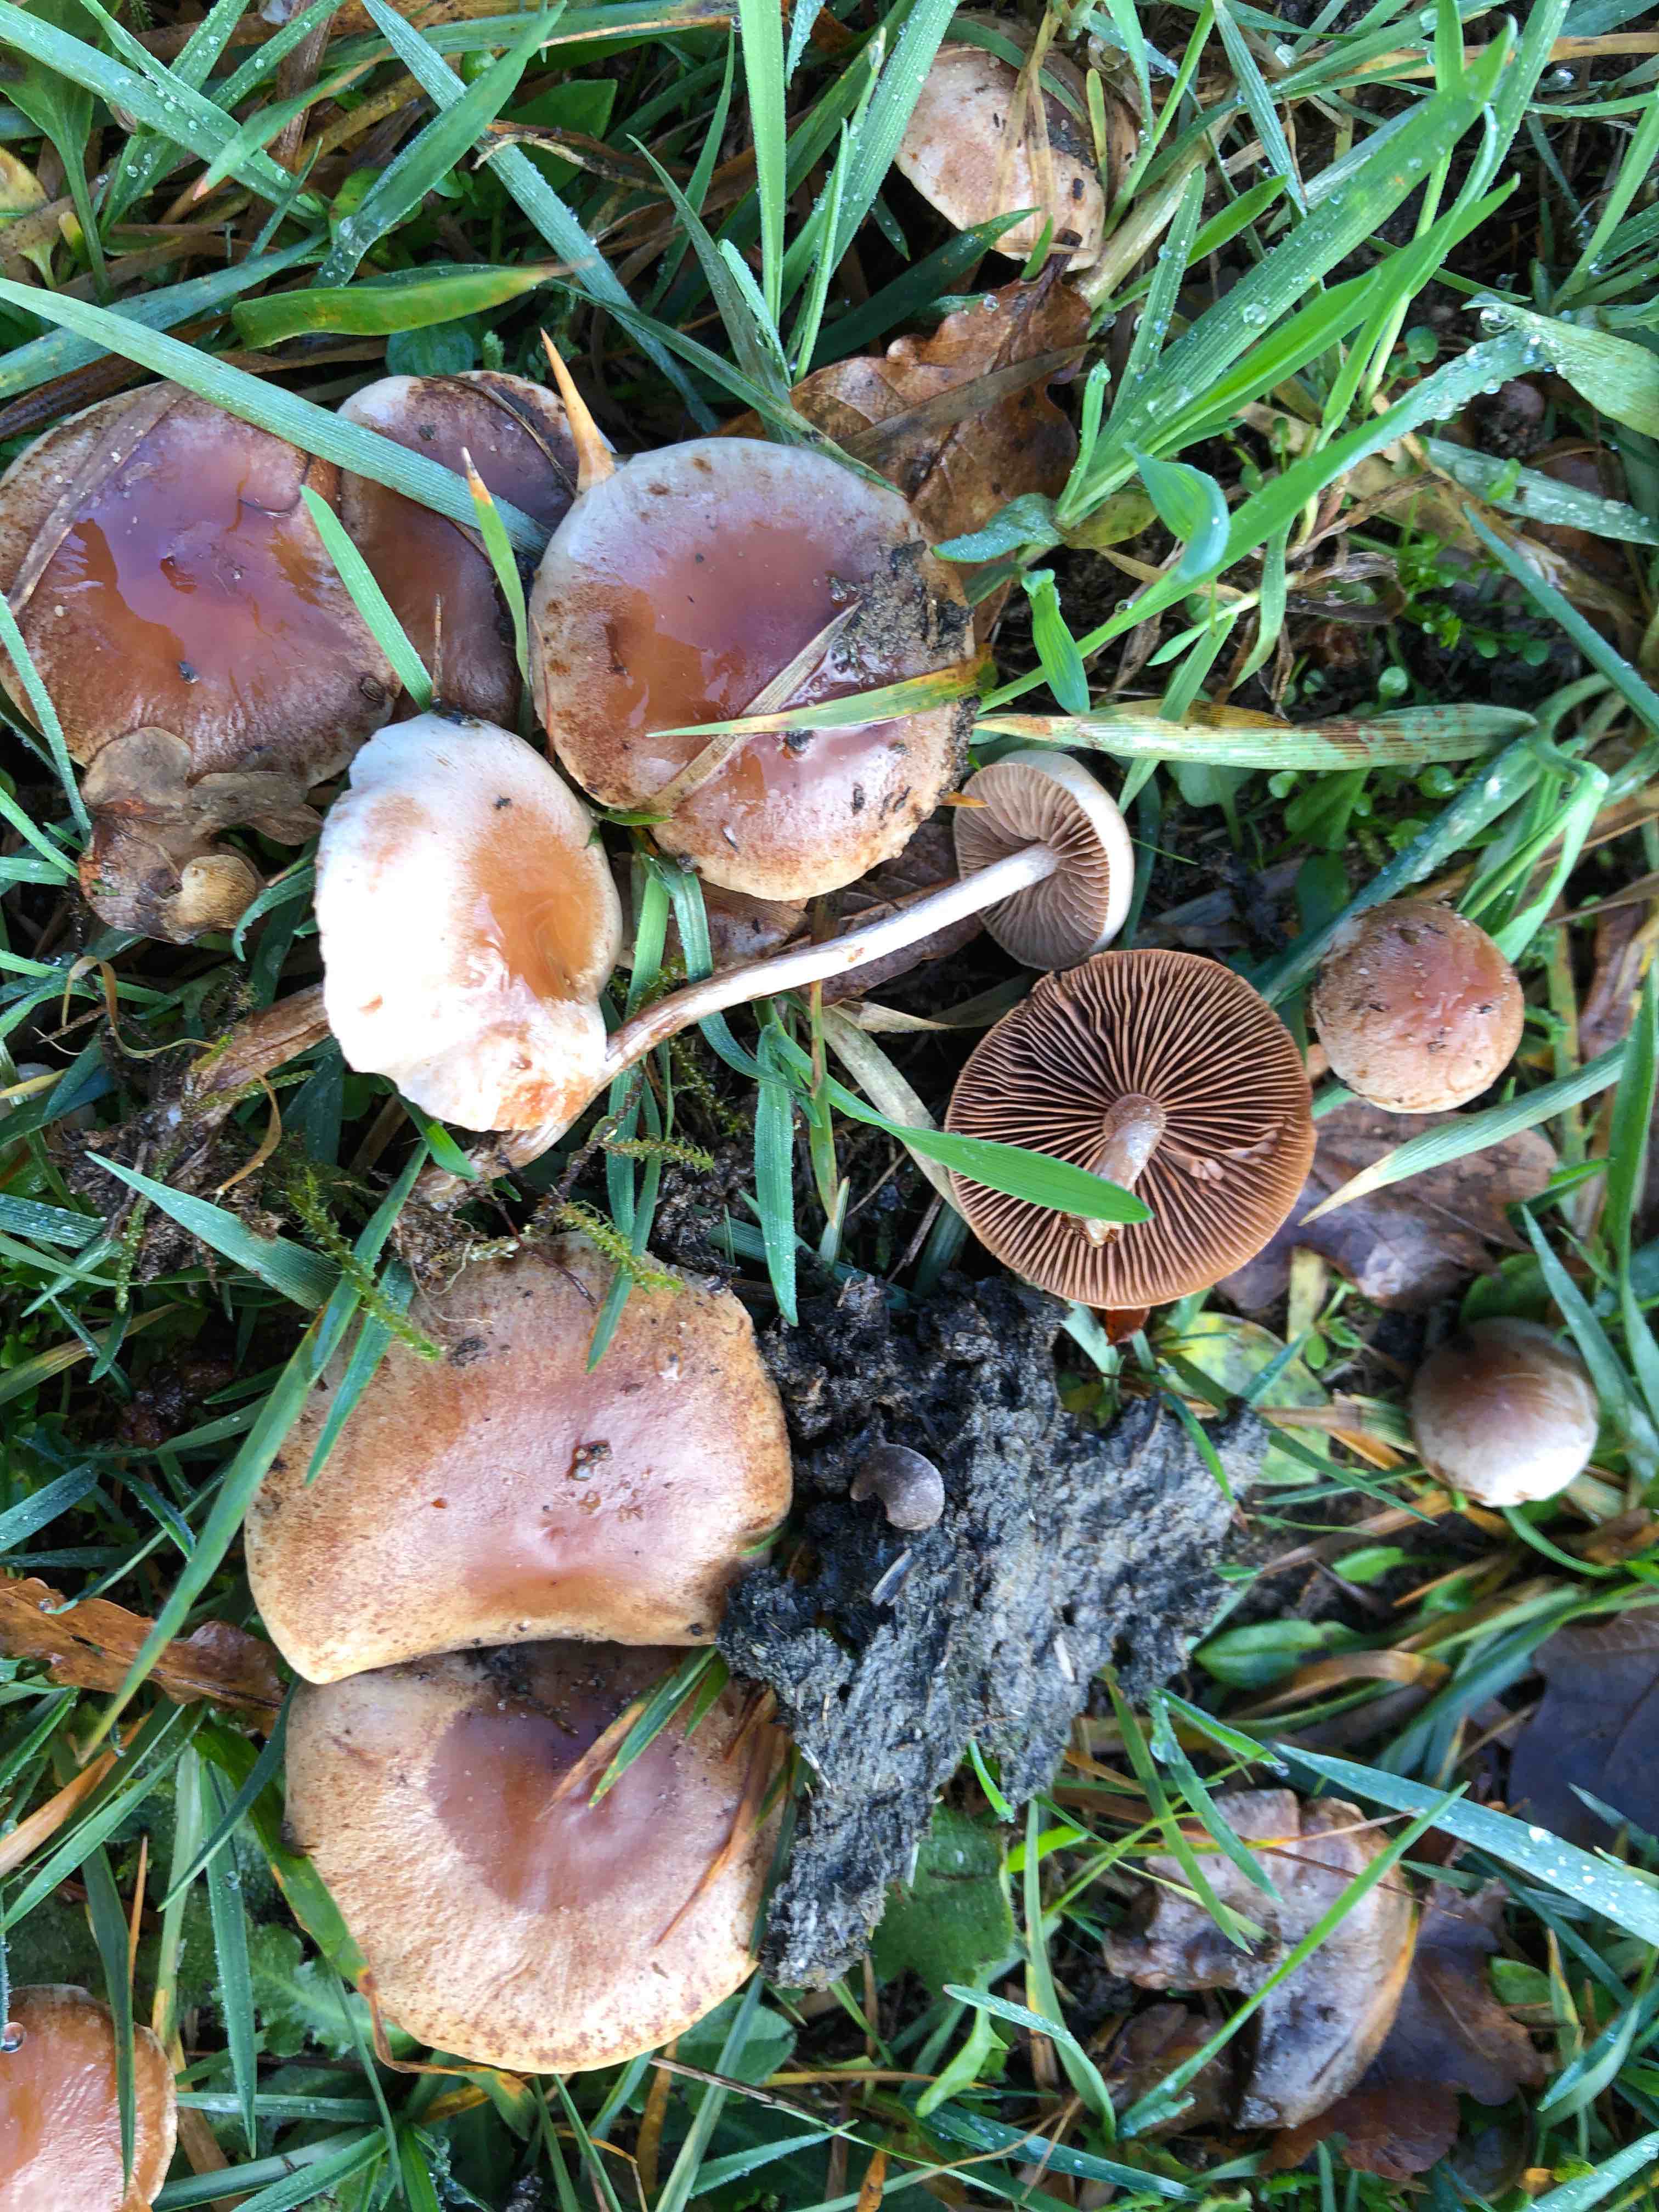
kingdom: Fungi
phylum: Basidiomycota
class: Agaricomycetes
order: Agaricales
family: Hymenogastraceae
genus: Hebeloma
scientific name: Hebeloma birrus
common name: rodslående tåreblad
